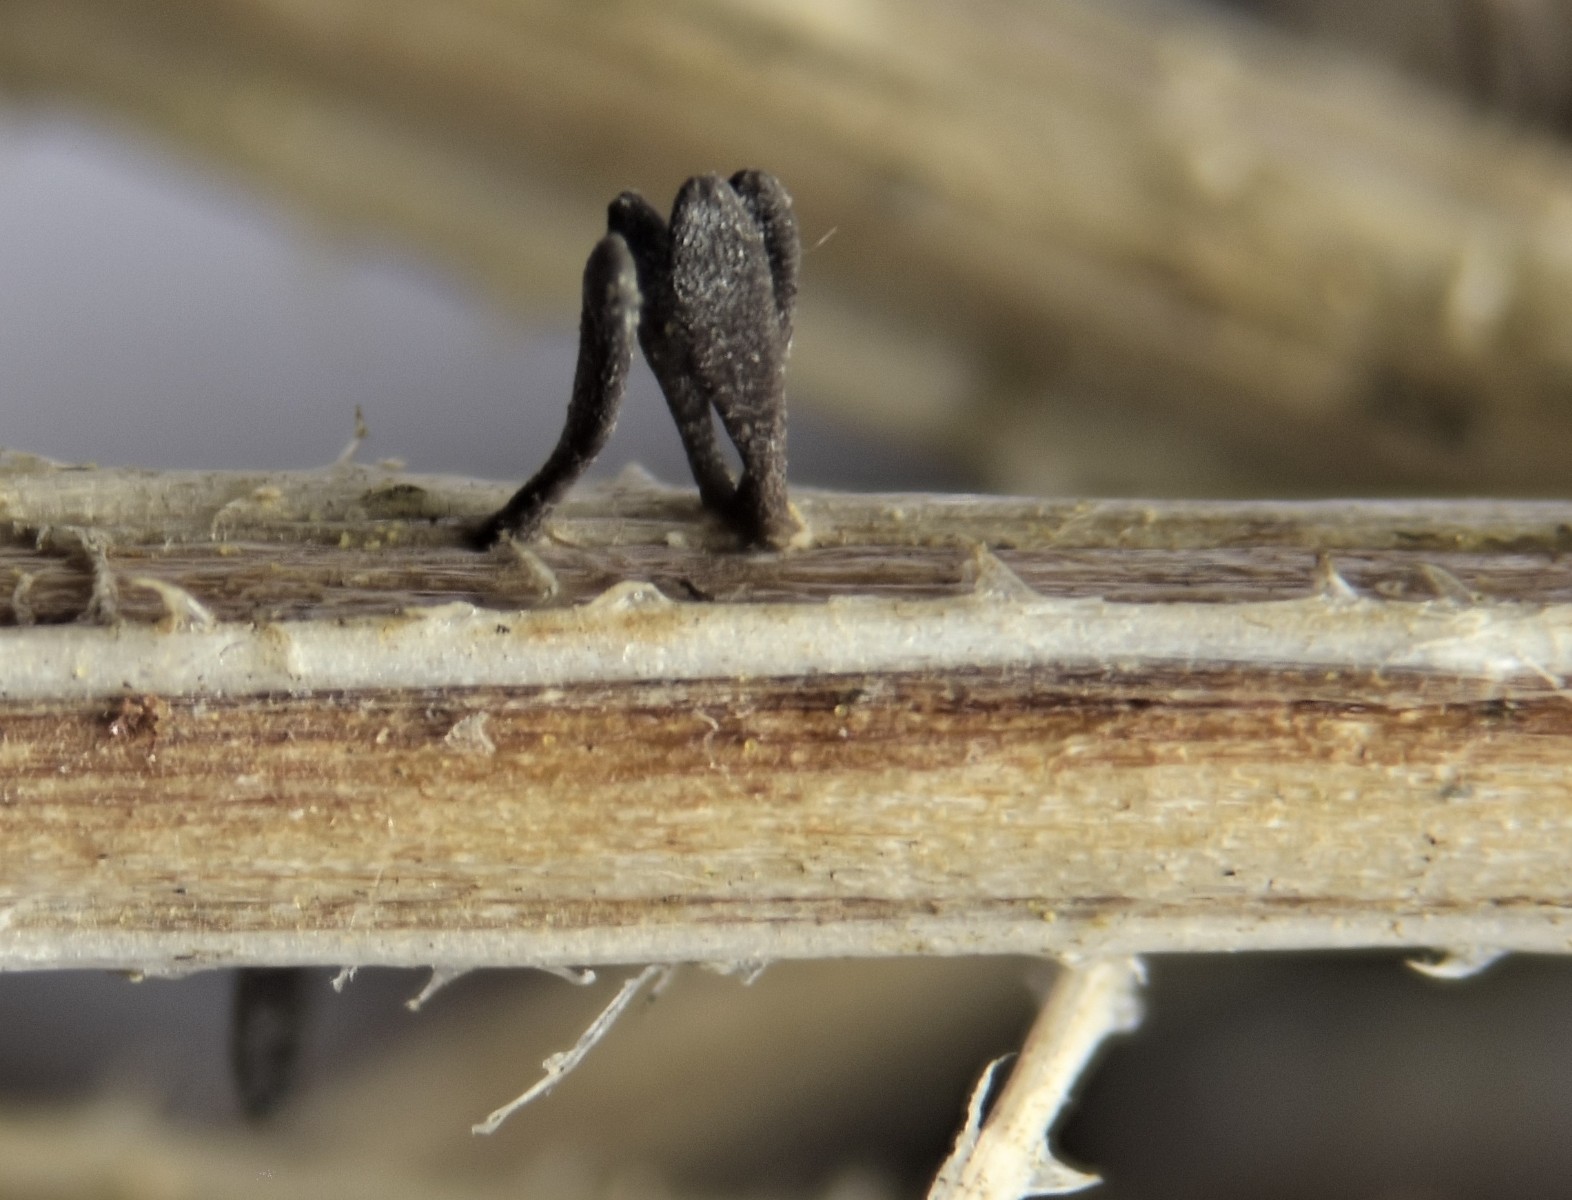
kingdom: Fungi
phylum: Ascomycota
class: Dothideomycetes
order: Acrospermales
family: Acrospermaceae
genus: Acrospermum
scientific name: Acrospermum pallidulum
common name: snerre-stængeltunge
